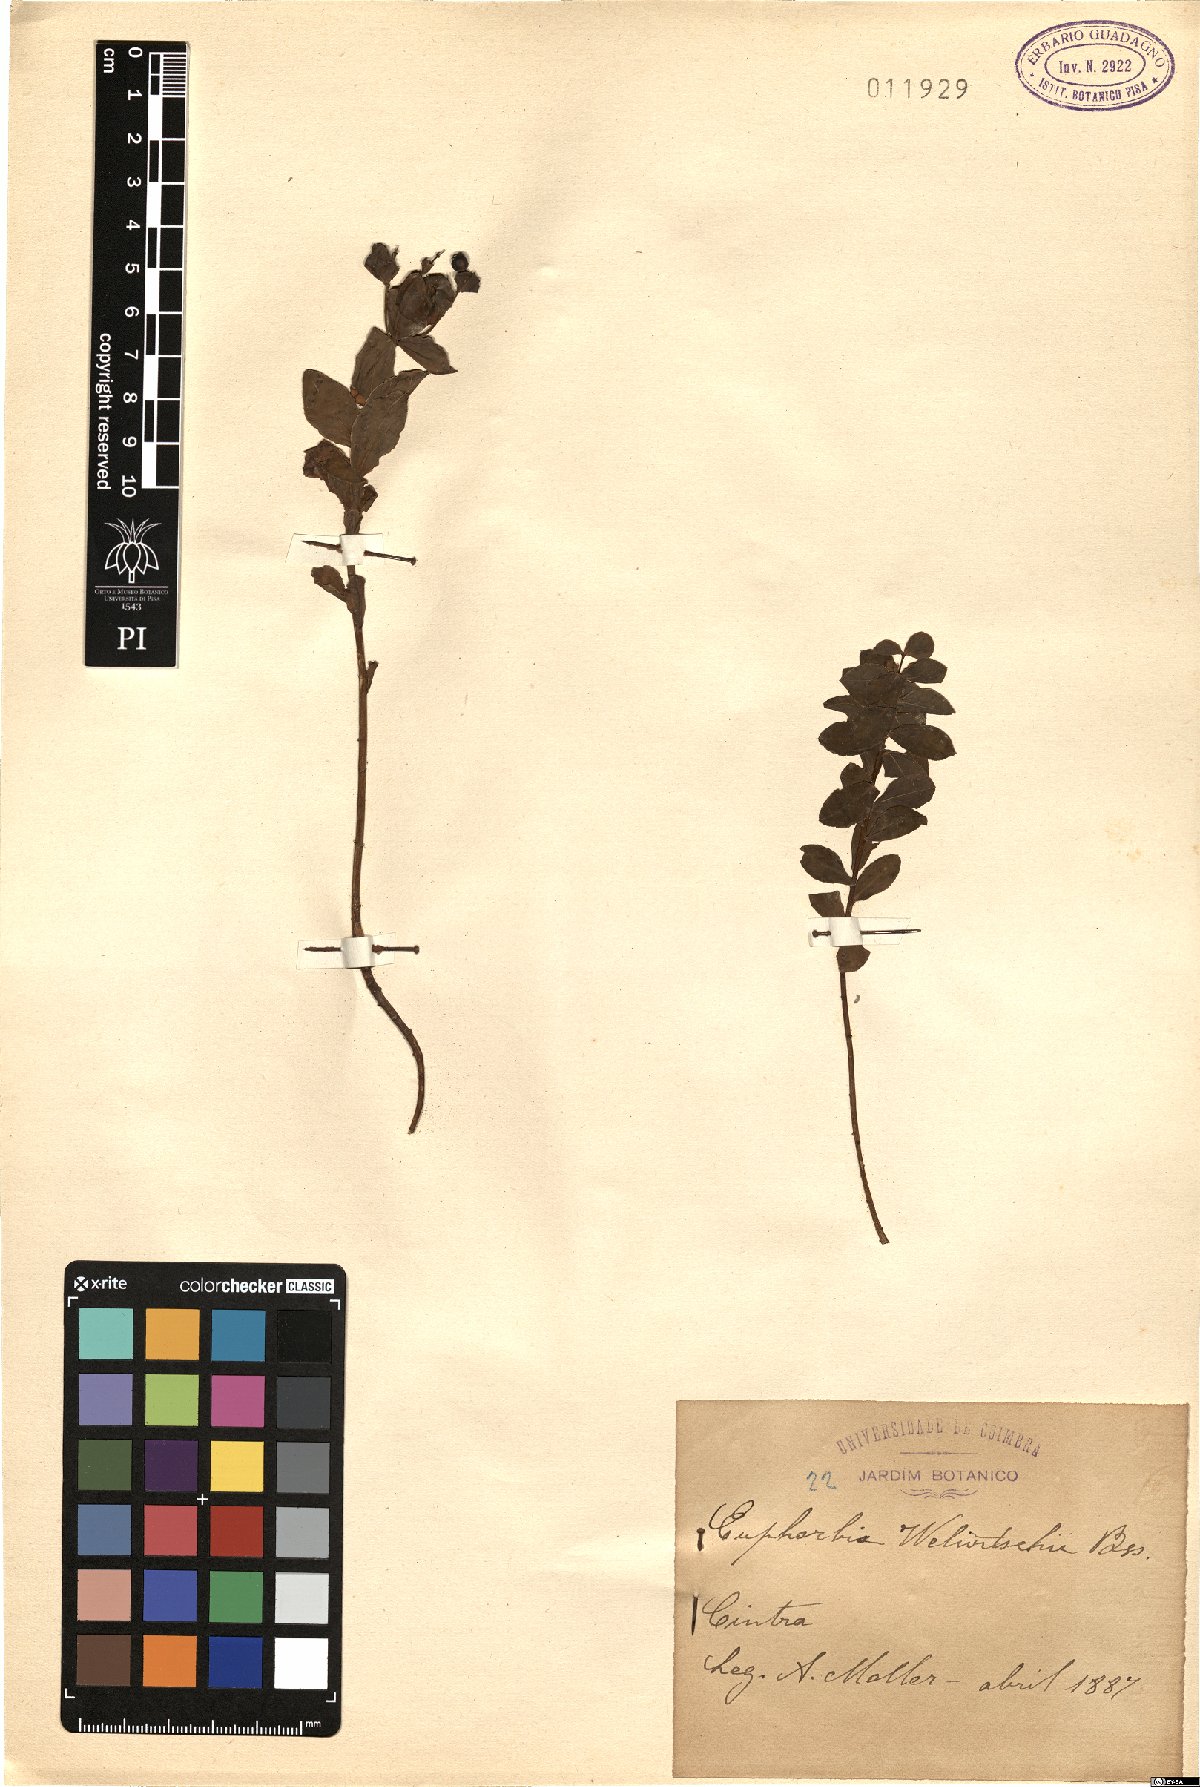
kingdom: Plantae
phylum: Tracheophyta
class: Magnoliopsida
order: Malpighiales
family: Euphorbiaceae
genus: Euphorbia
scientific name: Euphorbia paniculata
